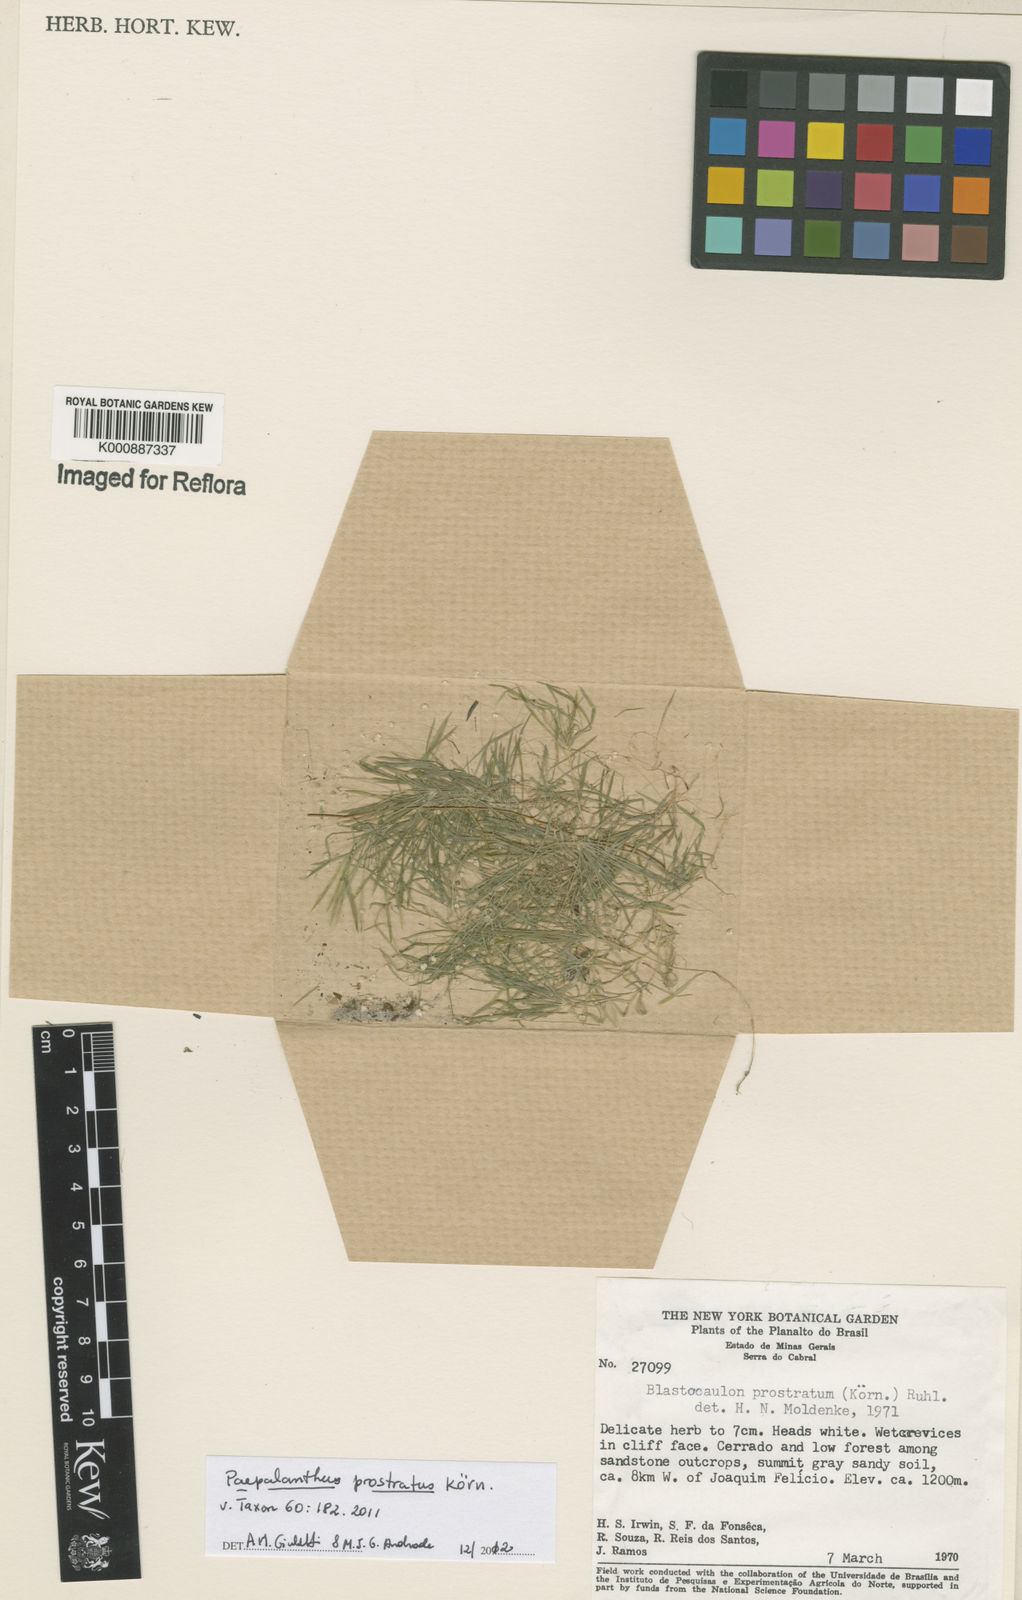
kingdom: Plantae
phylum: Tracheophyta
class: Liliopsida
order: Poales
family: Eriocaulaceae
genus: Paepalanthus
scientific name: Paepalanthus prostratus
